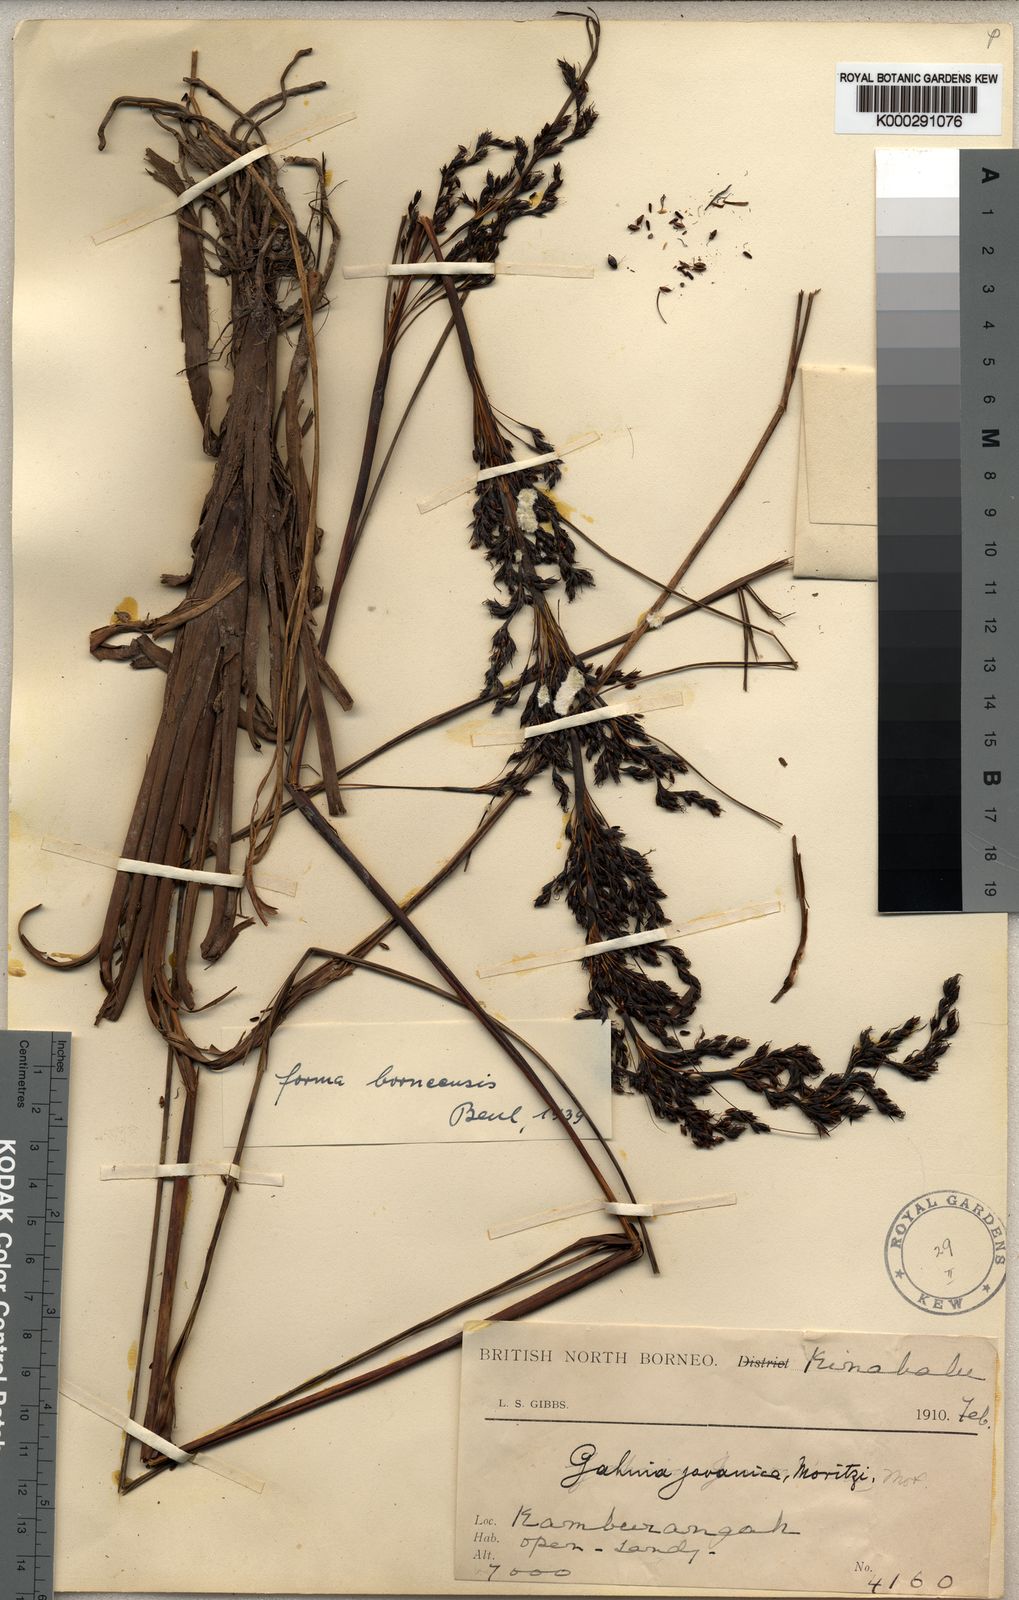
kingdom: Plantae
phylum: Tracheophyta
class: Liliopsida
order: Poales
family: Cyperaceae
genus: Gahnia
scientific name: Gahnia javanica
